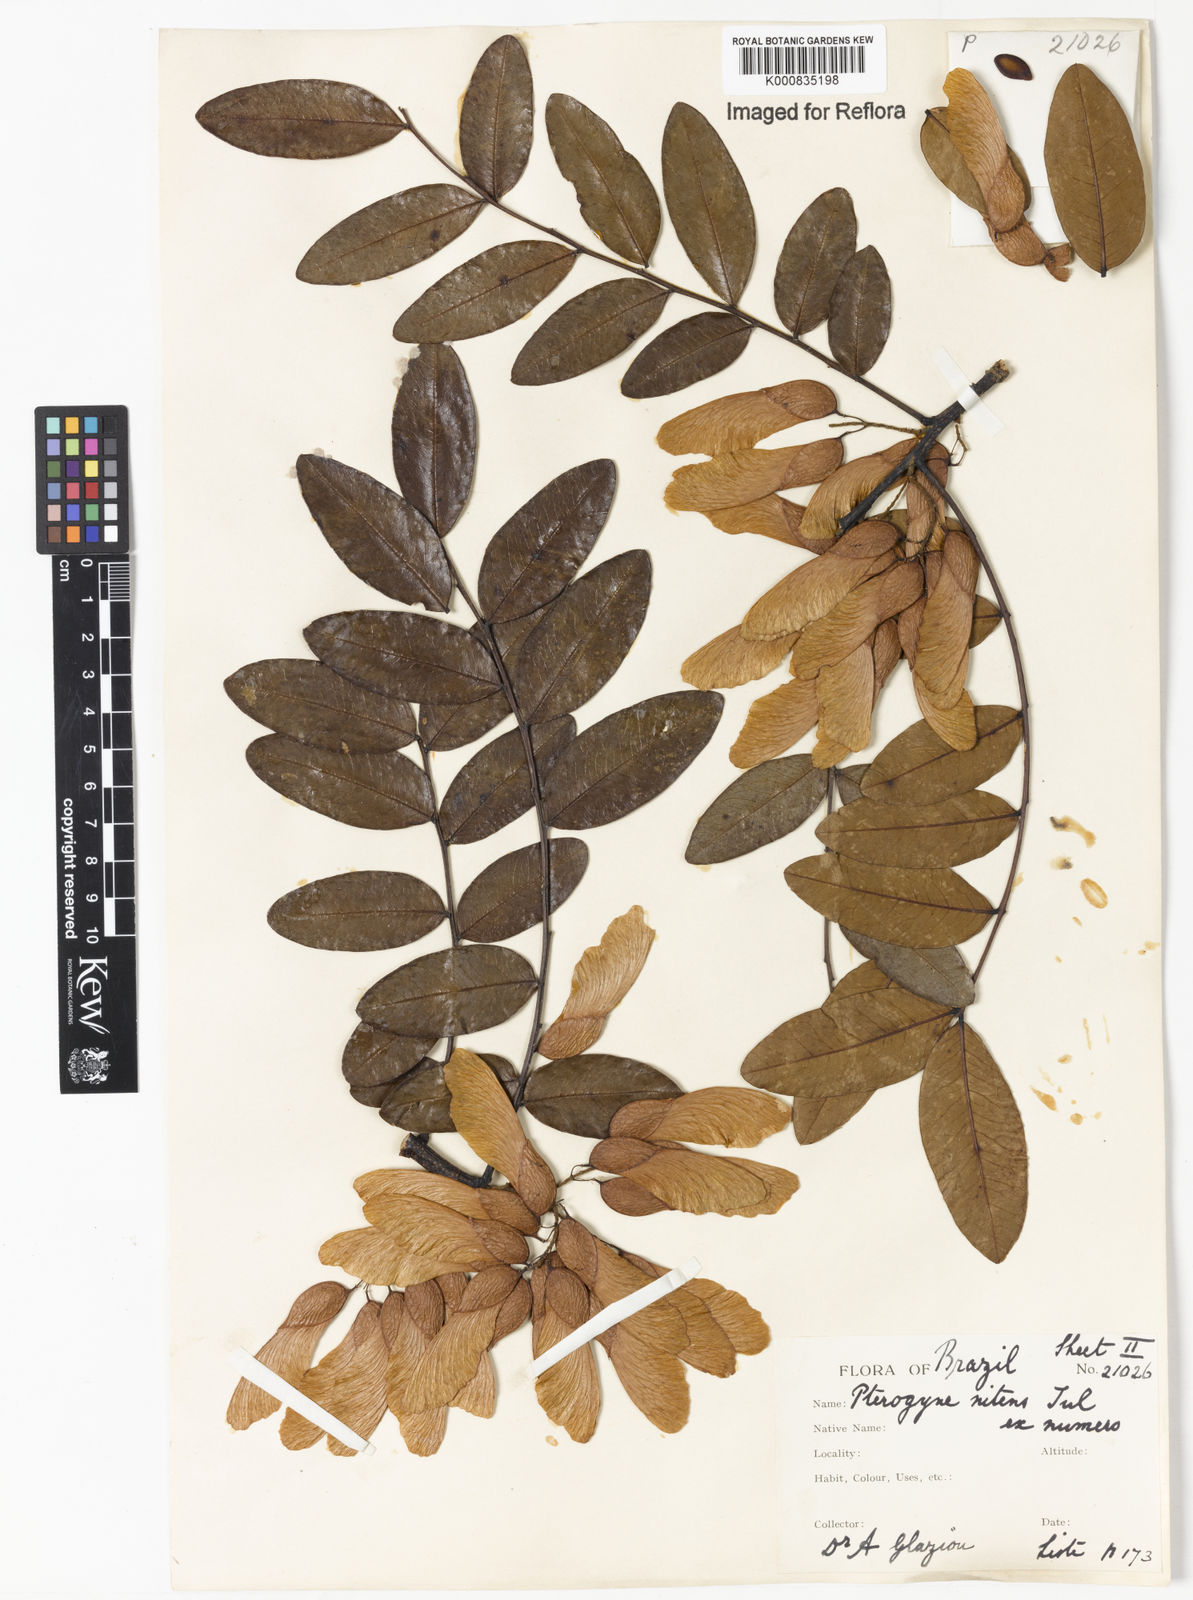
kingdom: Plantae
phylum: Tracheophyta
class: Magnoliopsida
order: Fabales
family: Fabaceae
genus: Pterogyne
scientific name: Pterogyne nitens
